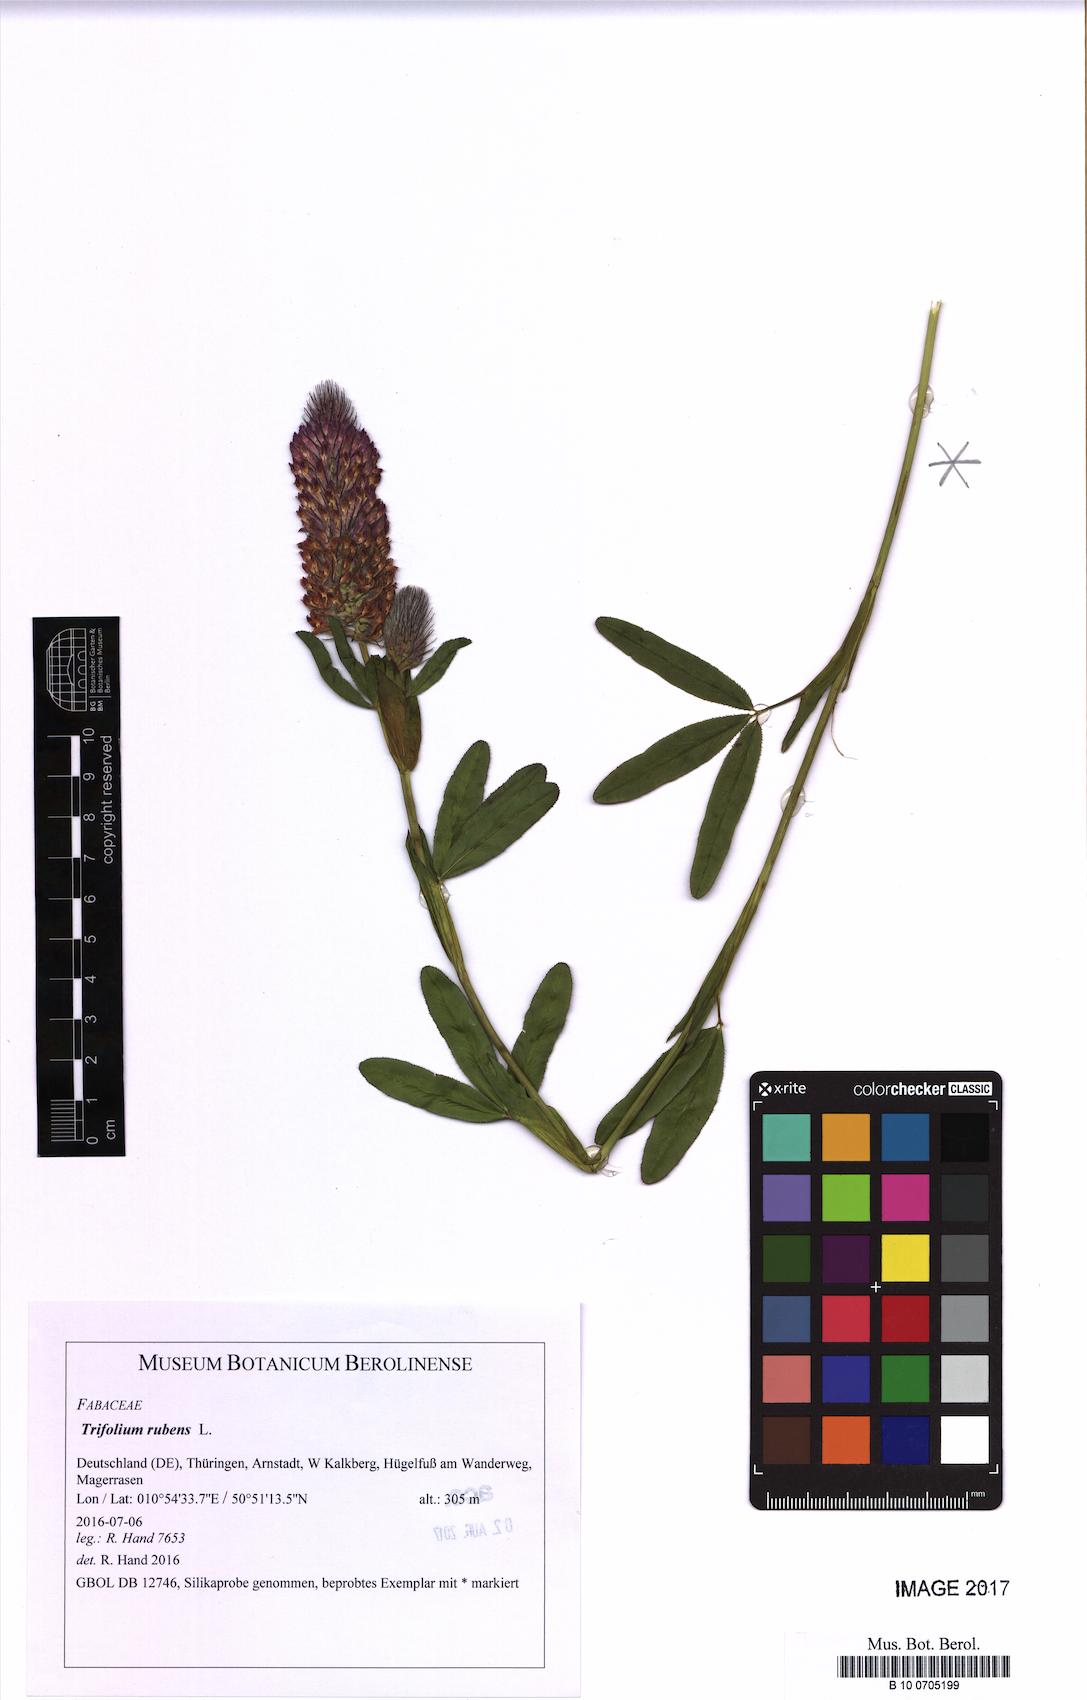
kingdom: Plantae
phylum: Tracheophyta
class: Magnoliopsida
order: Fabales
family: Fabaceae
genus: Trifolium
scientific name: Trifolium rubens
